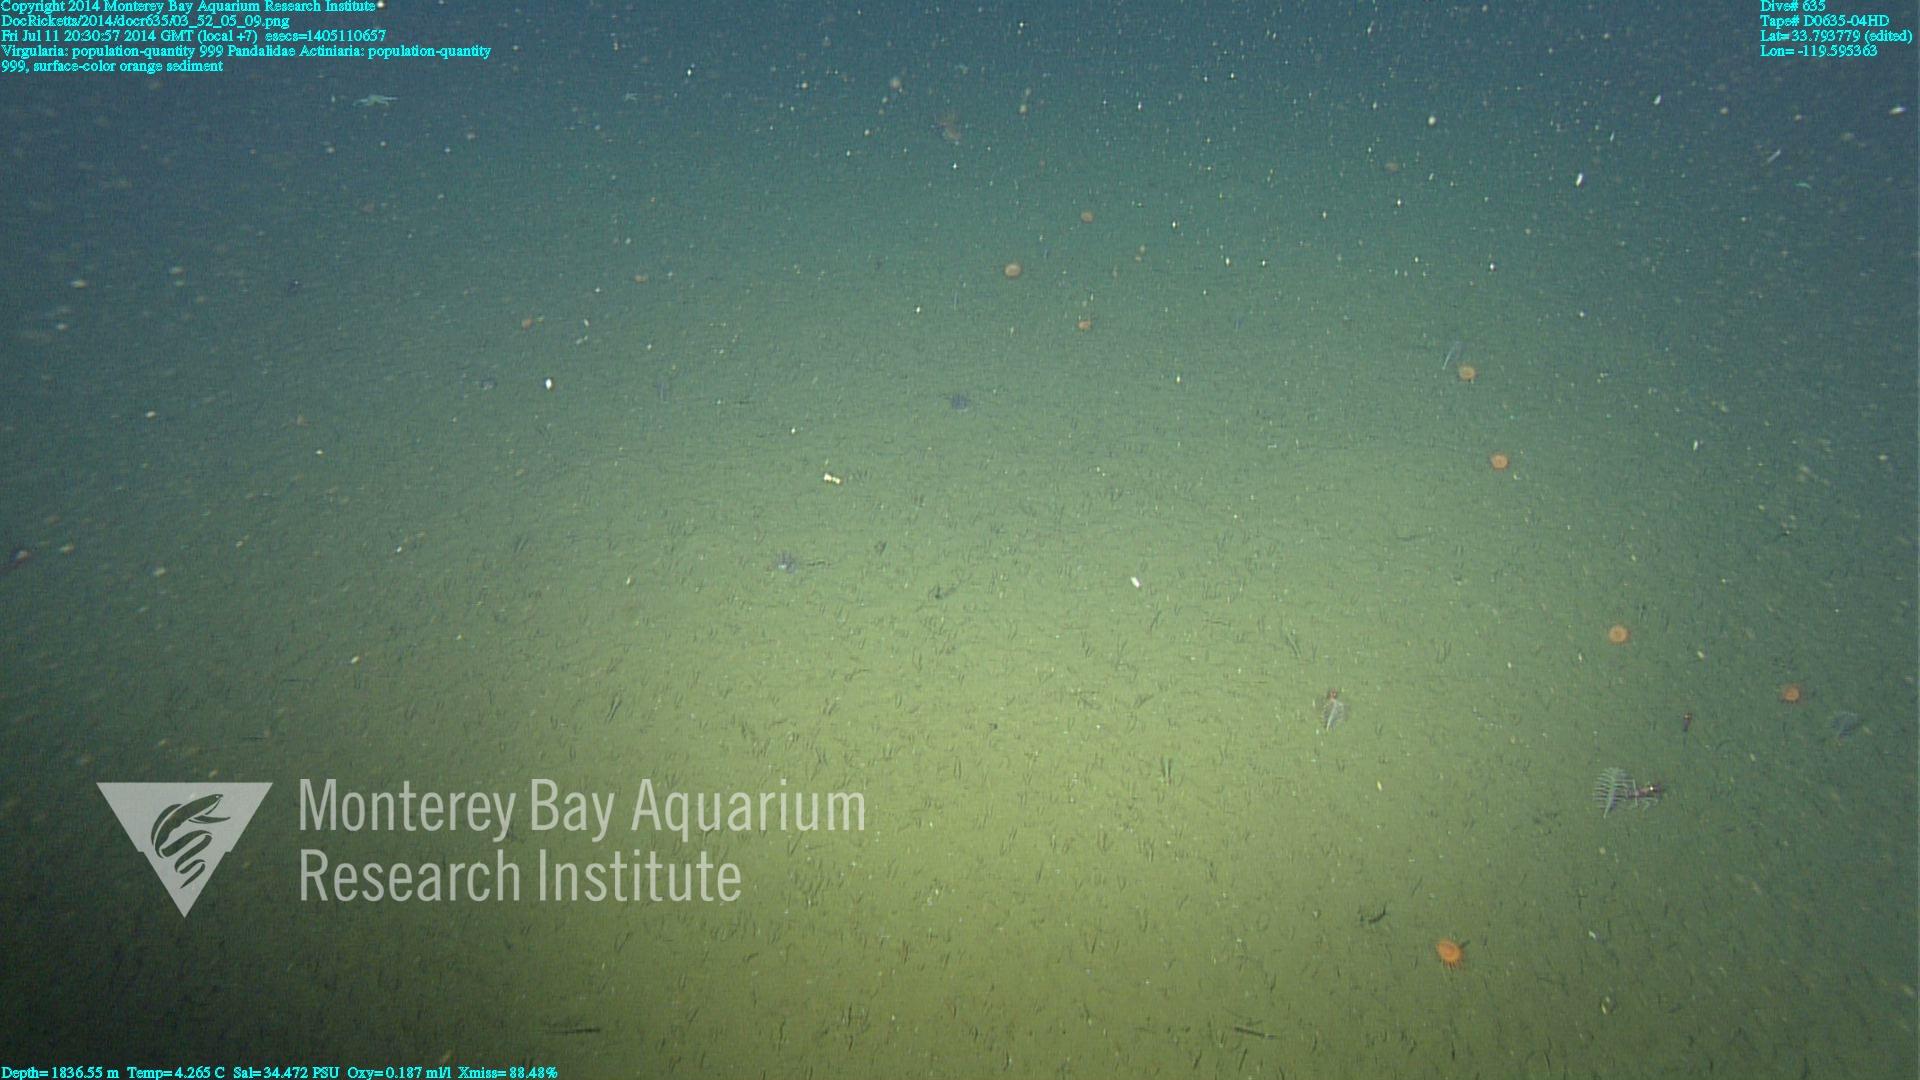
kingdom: Animalia
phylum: Cnidaria
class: Anthozoa
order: Scleralcyonacea
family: Virgulariidae
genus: Virgularia
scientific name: Virgularia
